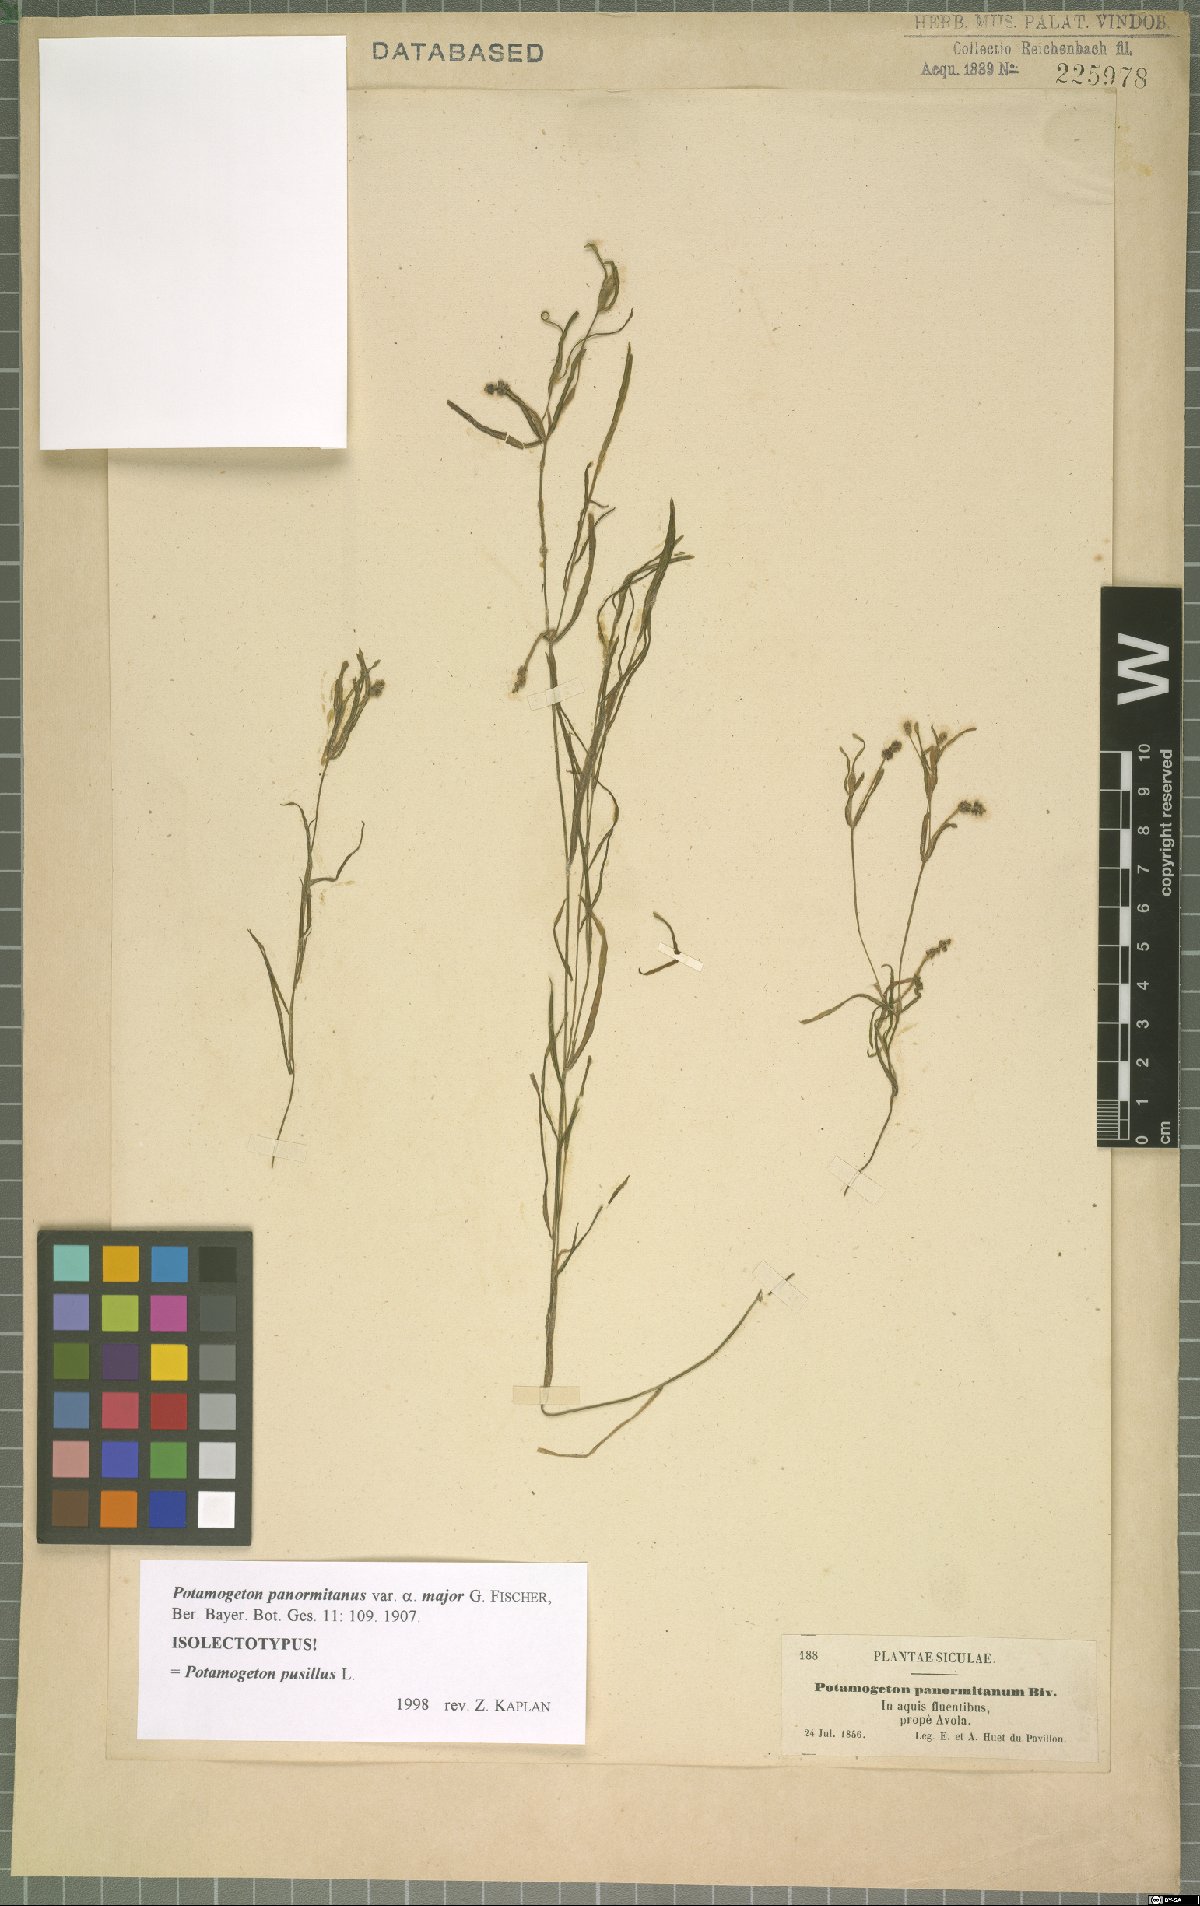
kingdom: Plantae
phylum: Tracheophyta
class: Liliopsida
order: Alismatales
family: Potamogetonaceae
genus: Potamogeton
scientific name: Potamogeton pusillus
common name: Lesser pondweed
